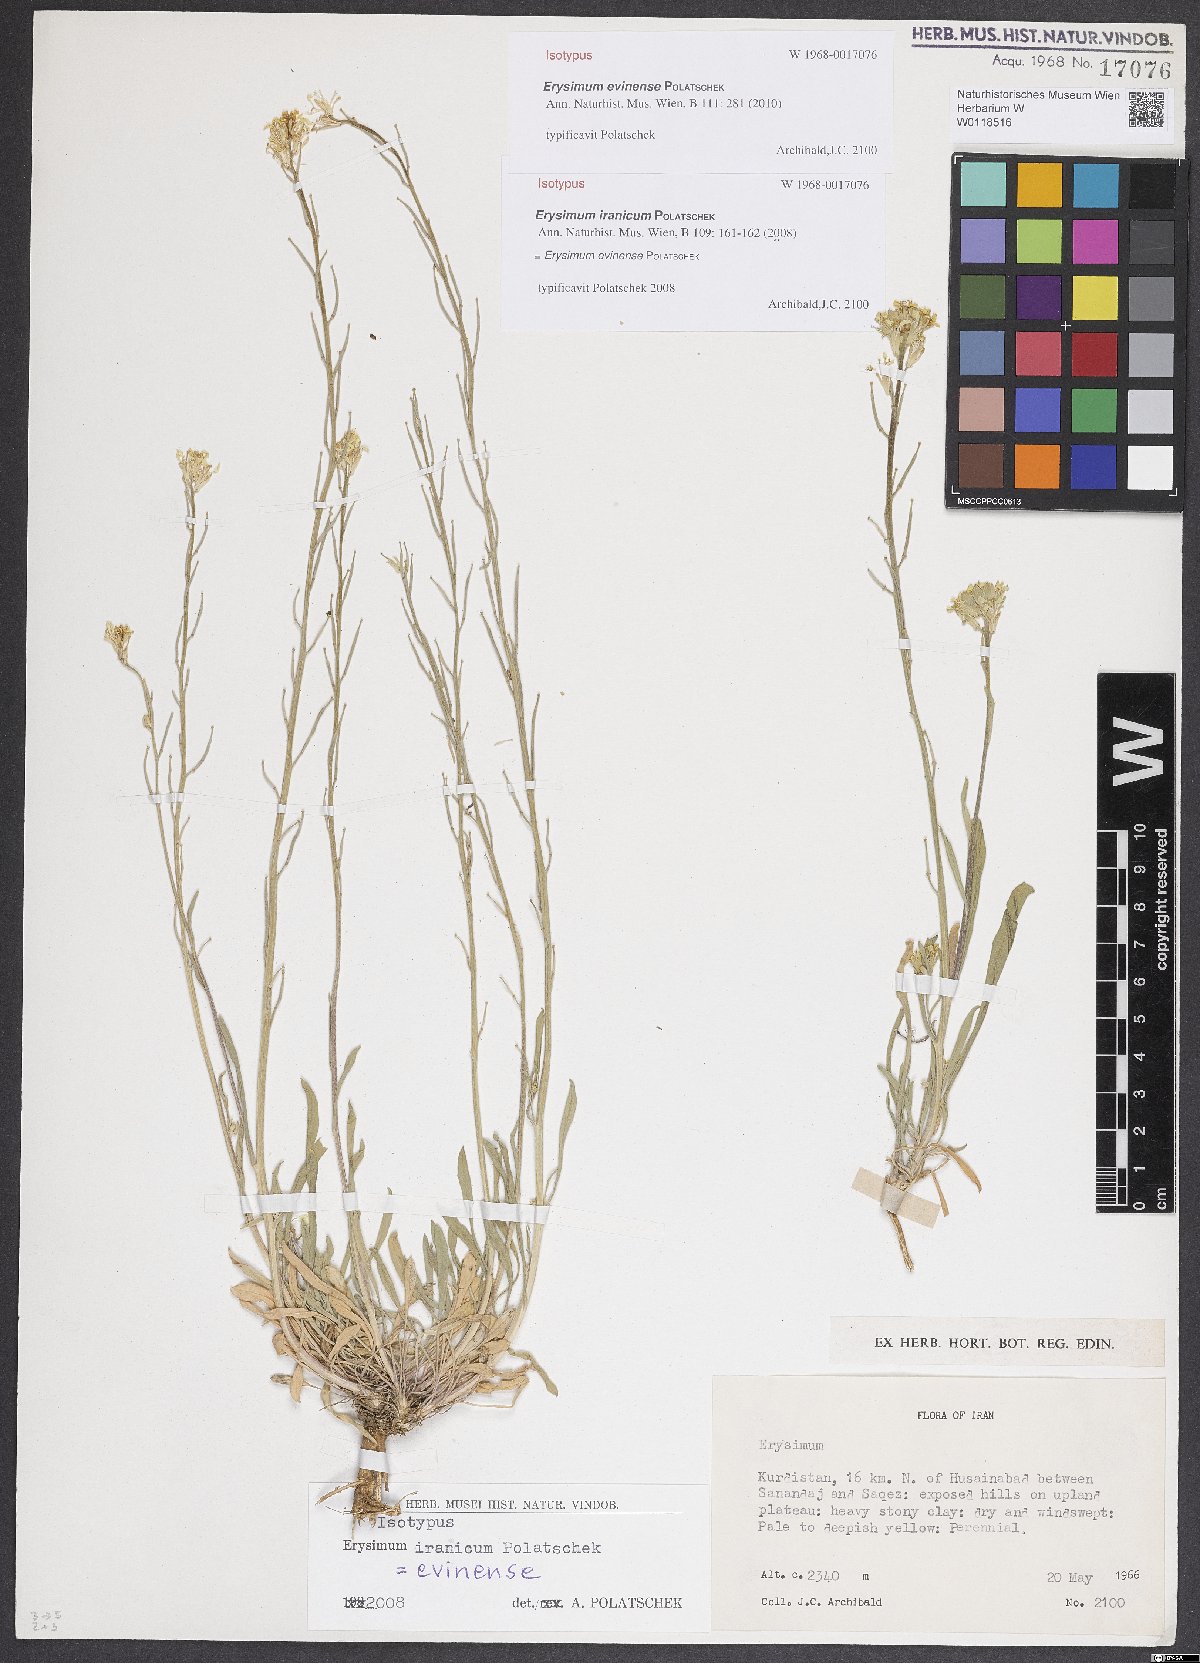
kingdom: Plantae
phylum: Tracheophyta
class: Magnoliopsida
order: Brassicales
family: Brassicaceae
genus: Erysimum
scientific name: Erysimum evinense
